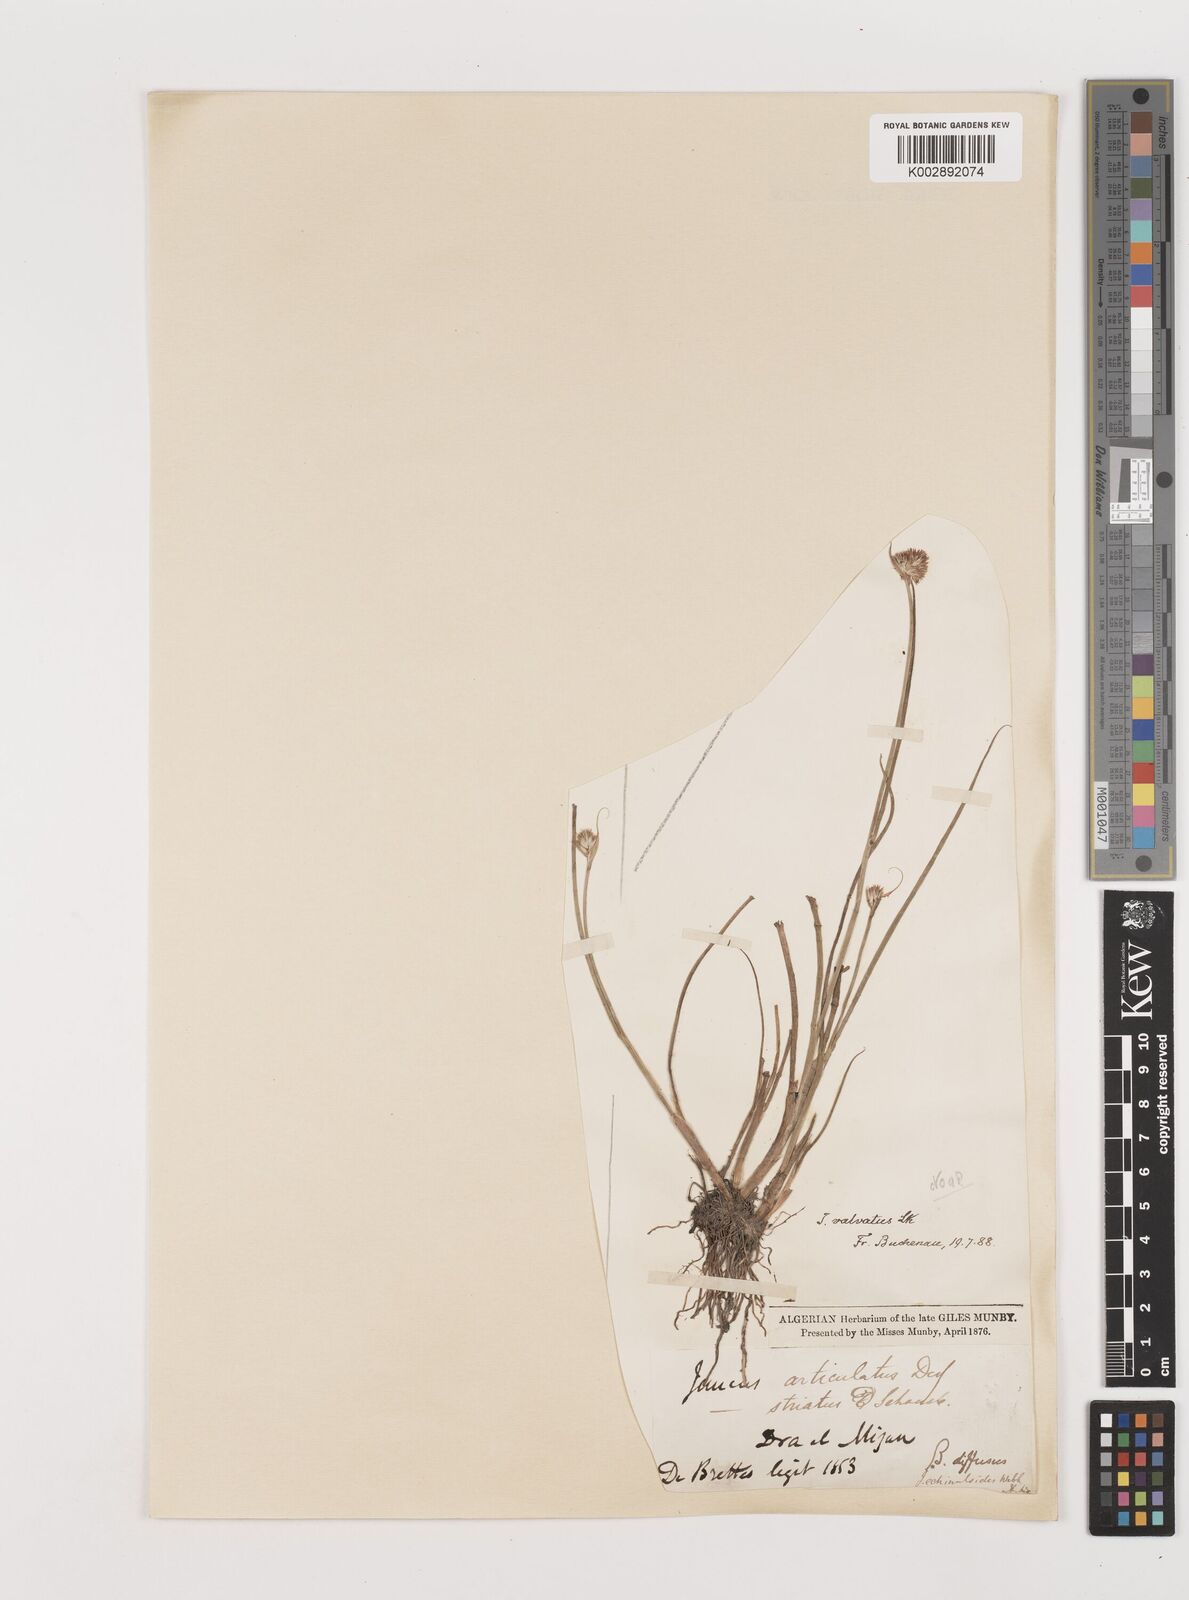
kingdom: Plantae
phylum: Tracheophyta
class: Liliopsida
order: Poales
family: Juncaceae
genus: Juncus
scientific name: Juncus valvatus
